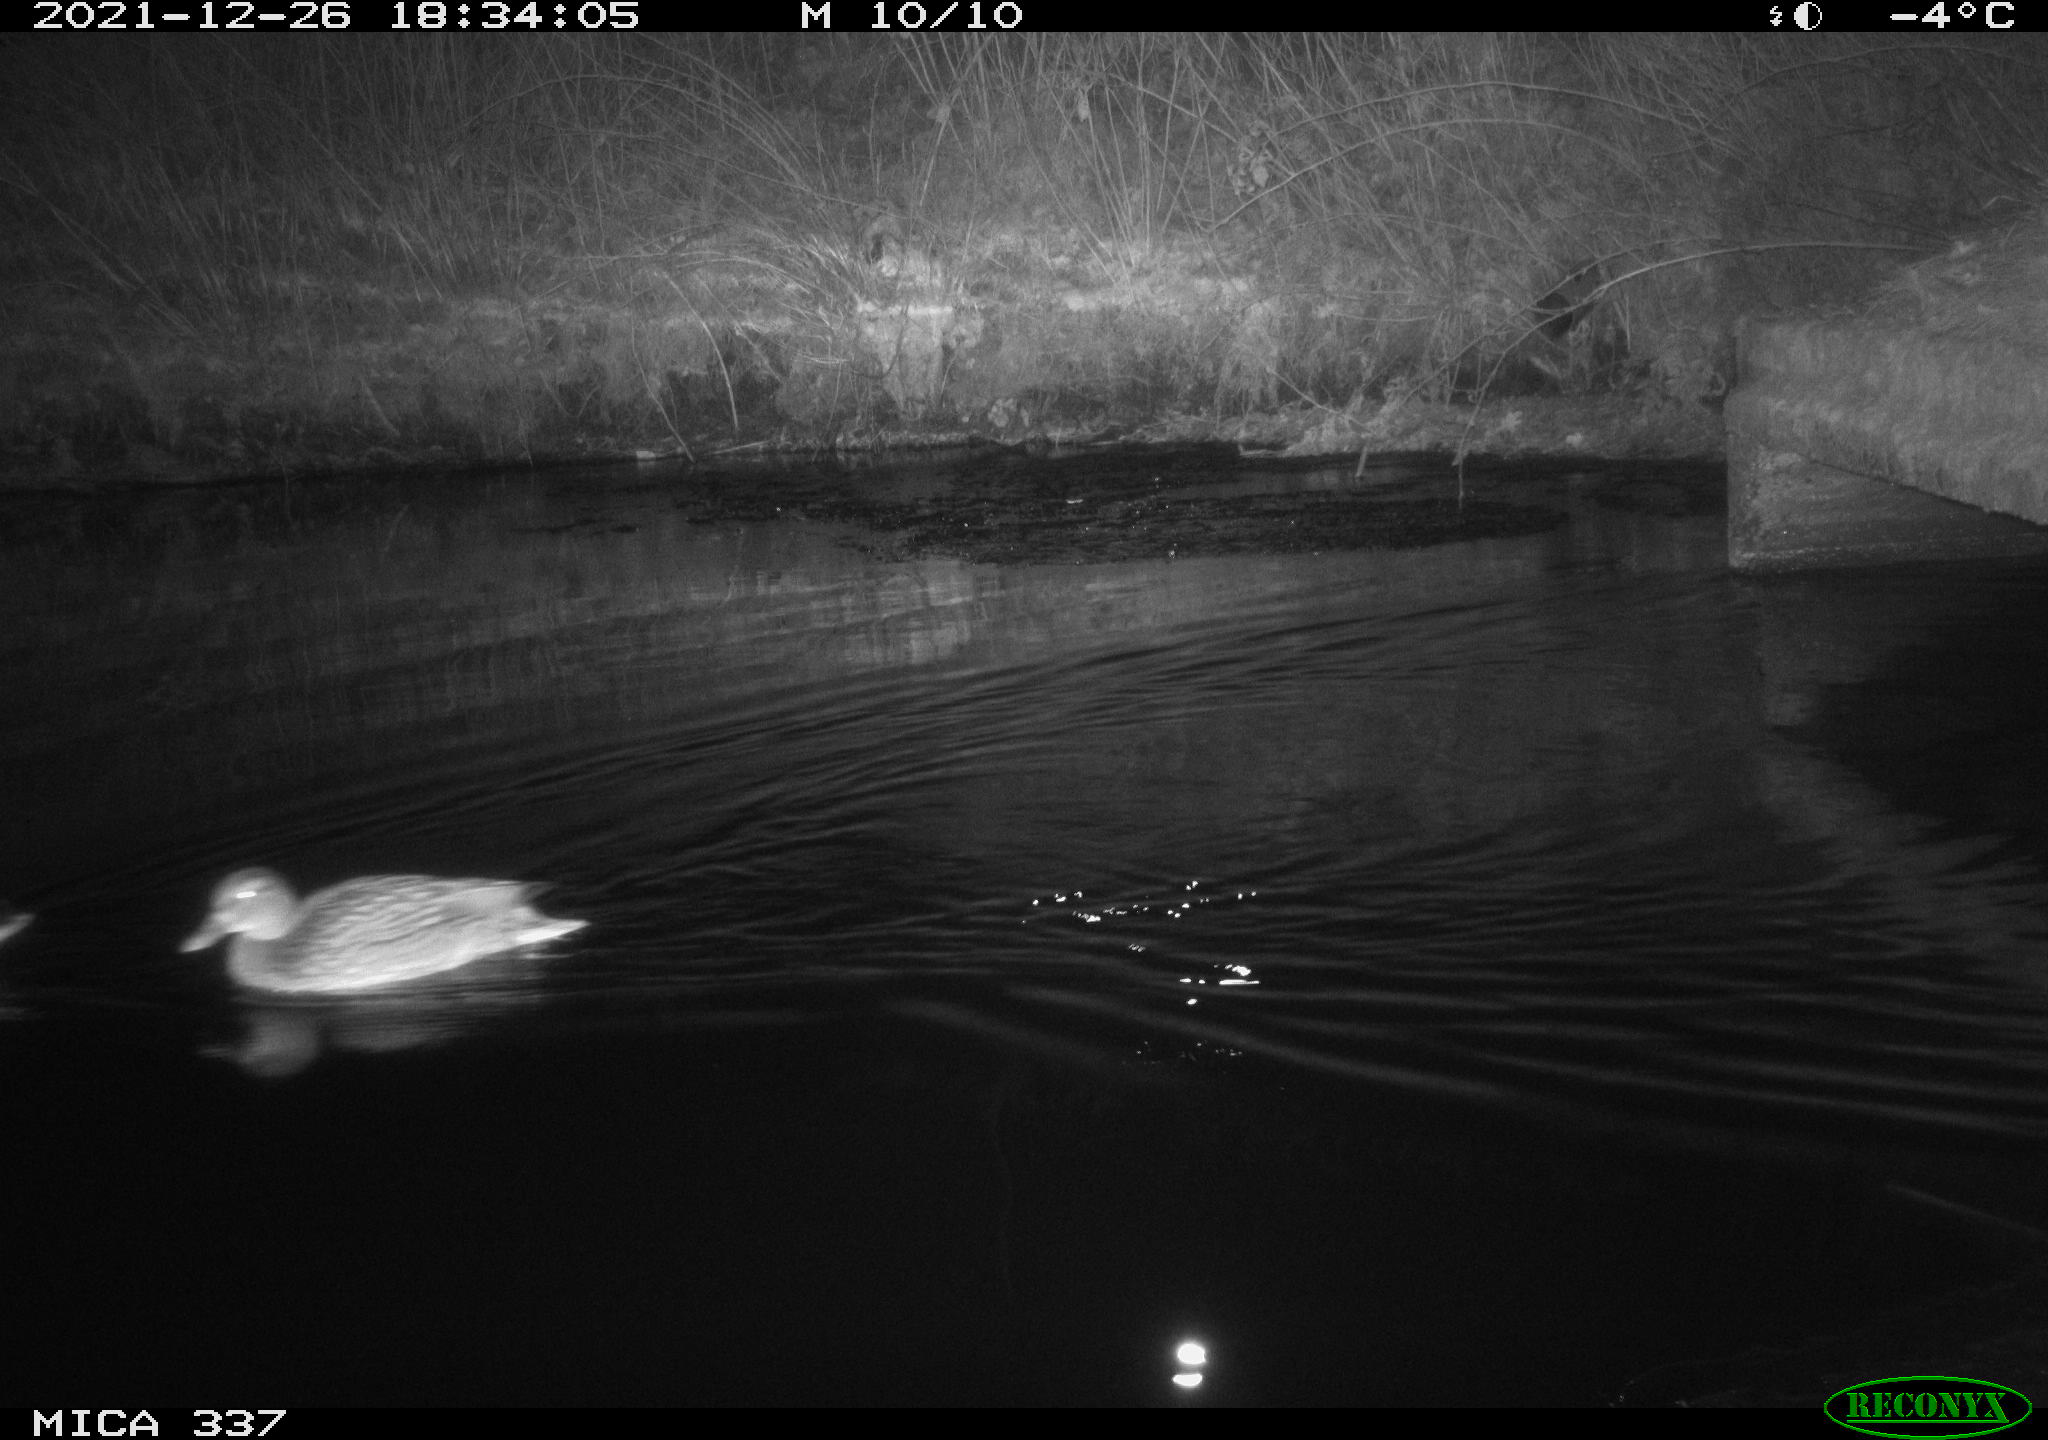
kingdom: Animalia
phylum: Chordata
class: Aves
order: Anseriformes
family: Anatidae
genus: Anas
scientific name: Anas platyrhynchos
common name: Mallard
